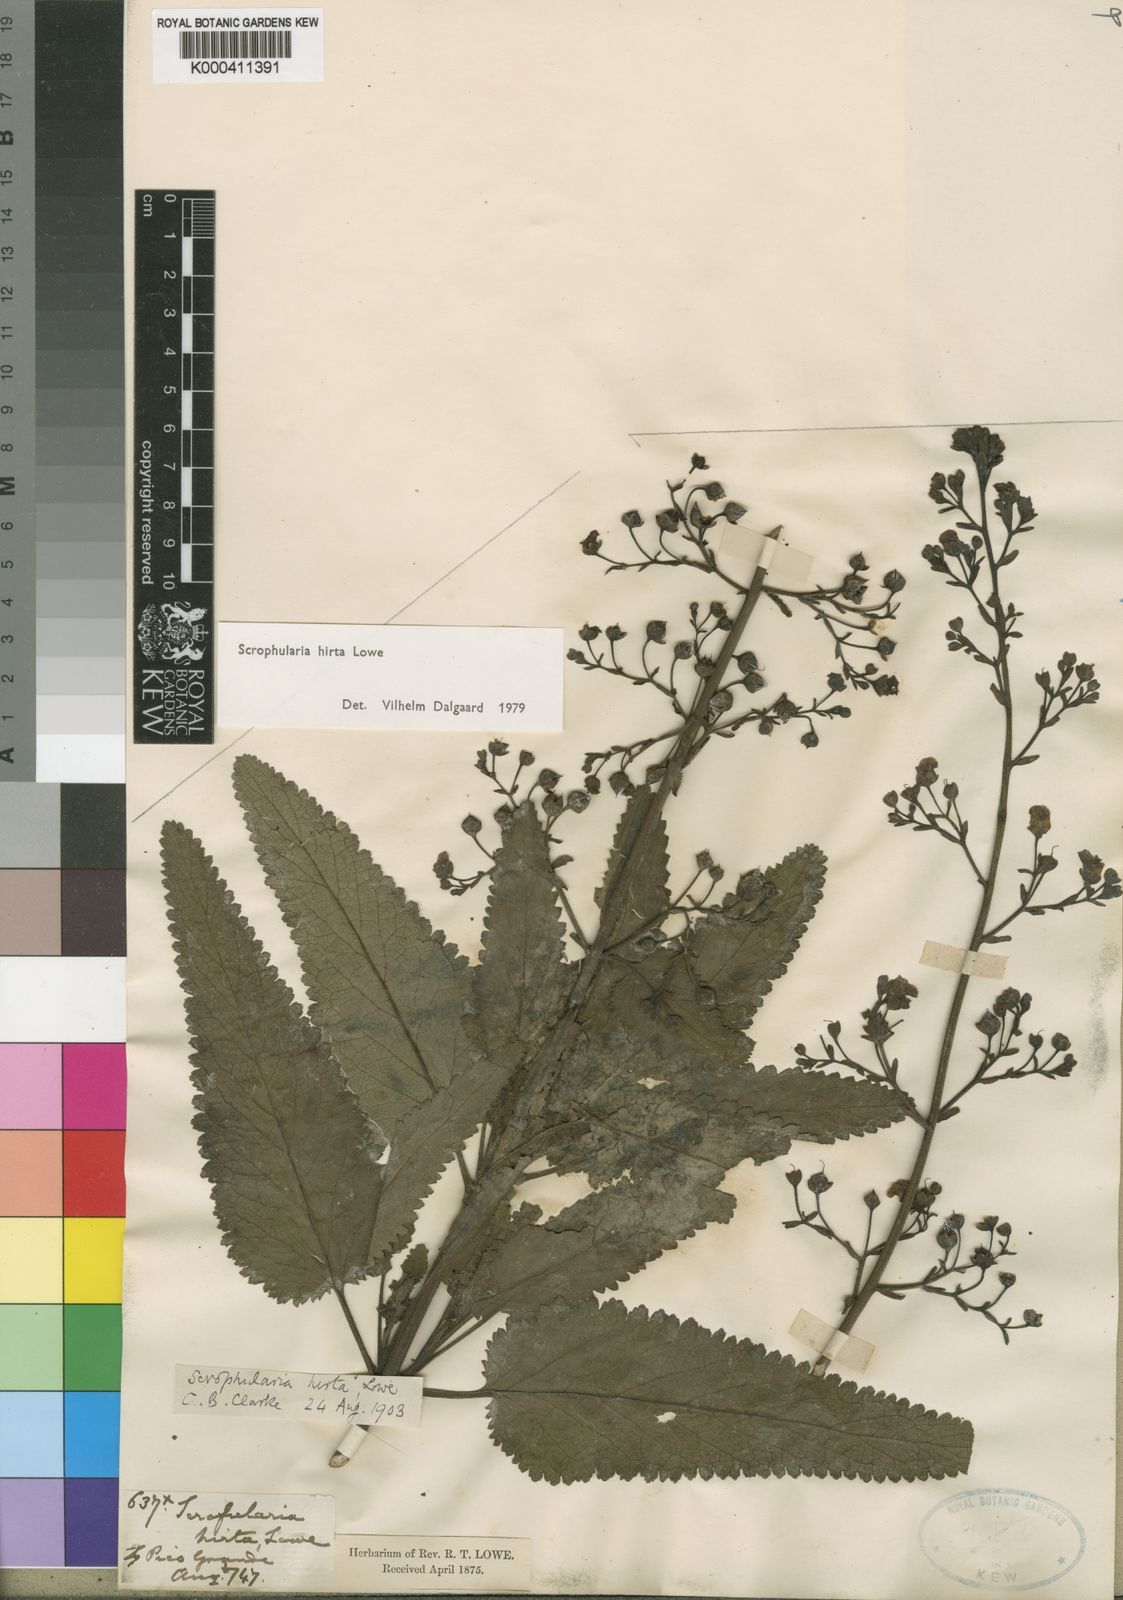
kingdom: Plantae
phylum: Tracheophyta
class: Magnoliopsida
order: Lamiales
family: Scrophulariaceae
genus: Scrophularia
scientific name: Scrophularia hirta
